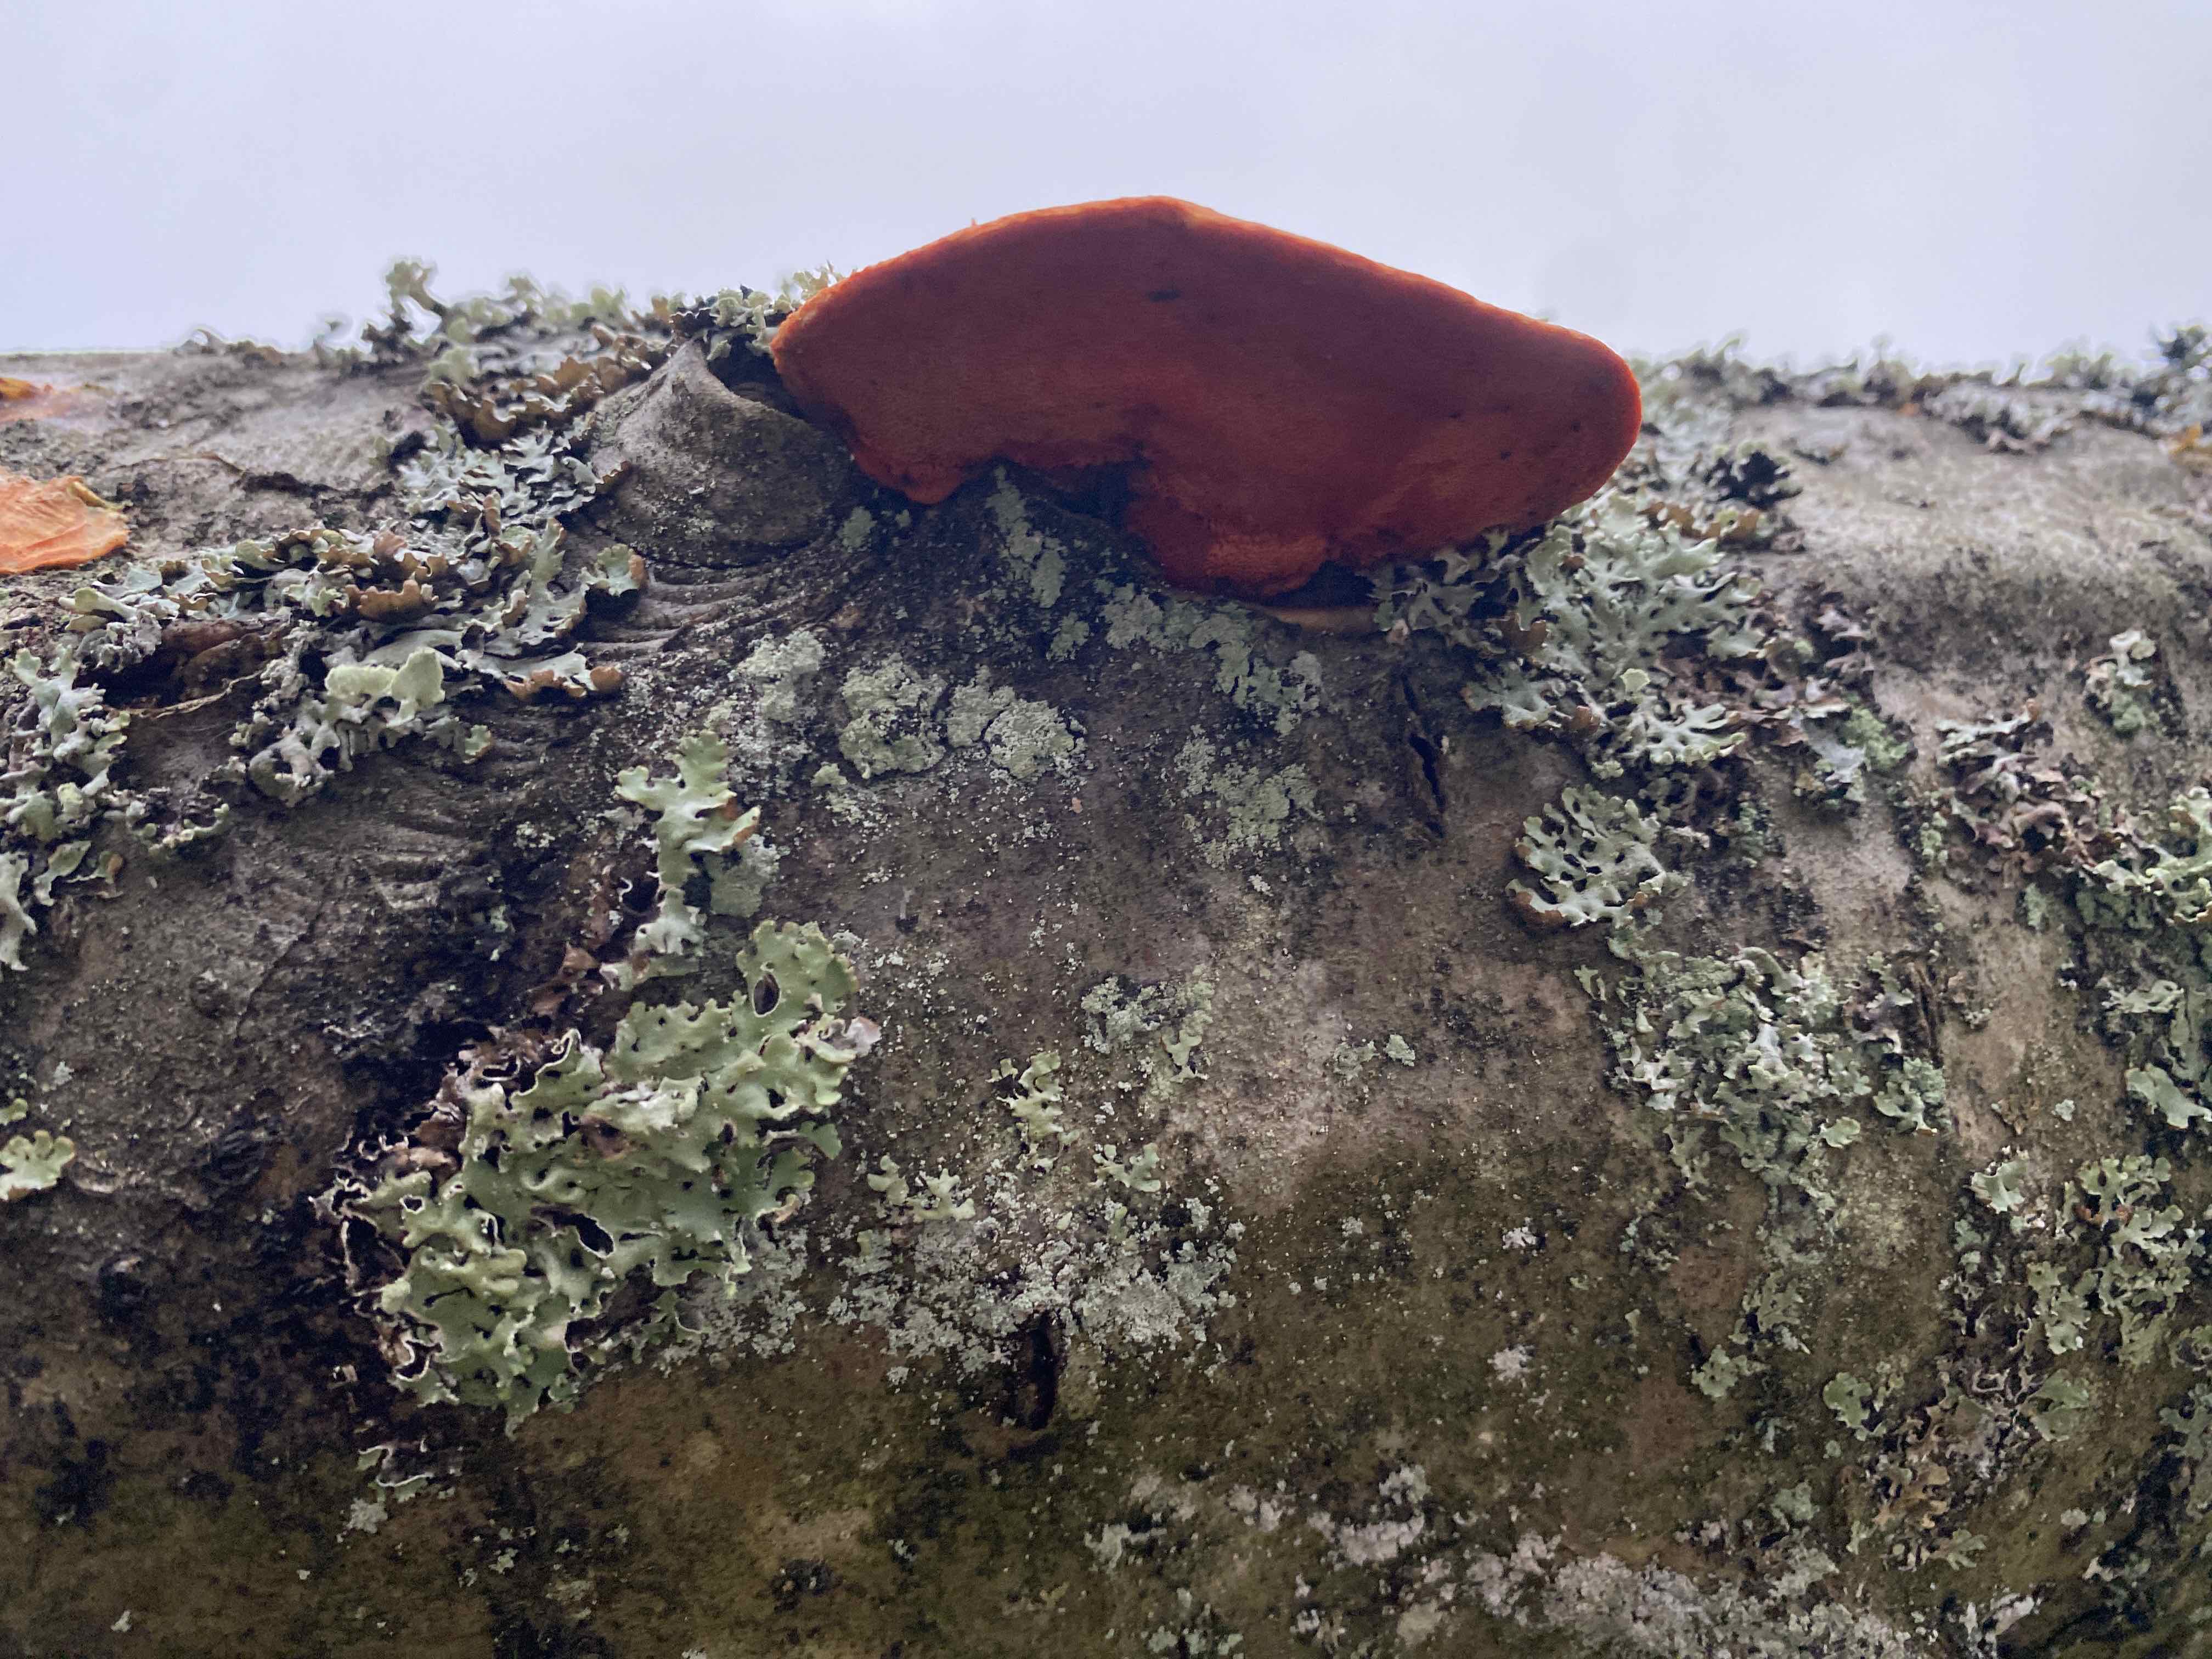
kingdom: Fungi
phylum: Basidiomycota
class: Agaricomycetes
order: Polyporales
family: Polyporaceae
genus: Trametes
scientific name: Trametes cinnabarina
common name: cinnoberporesvamp
